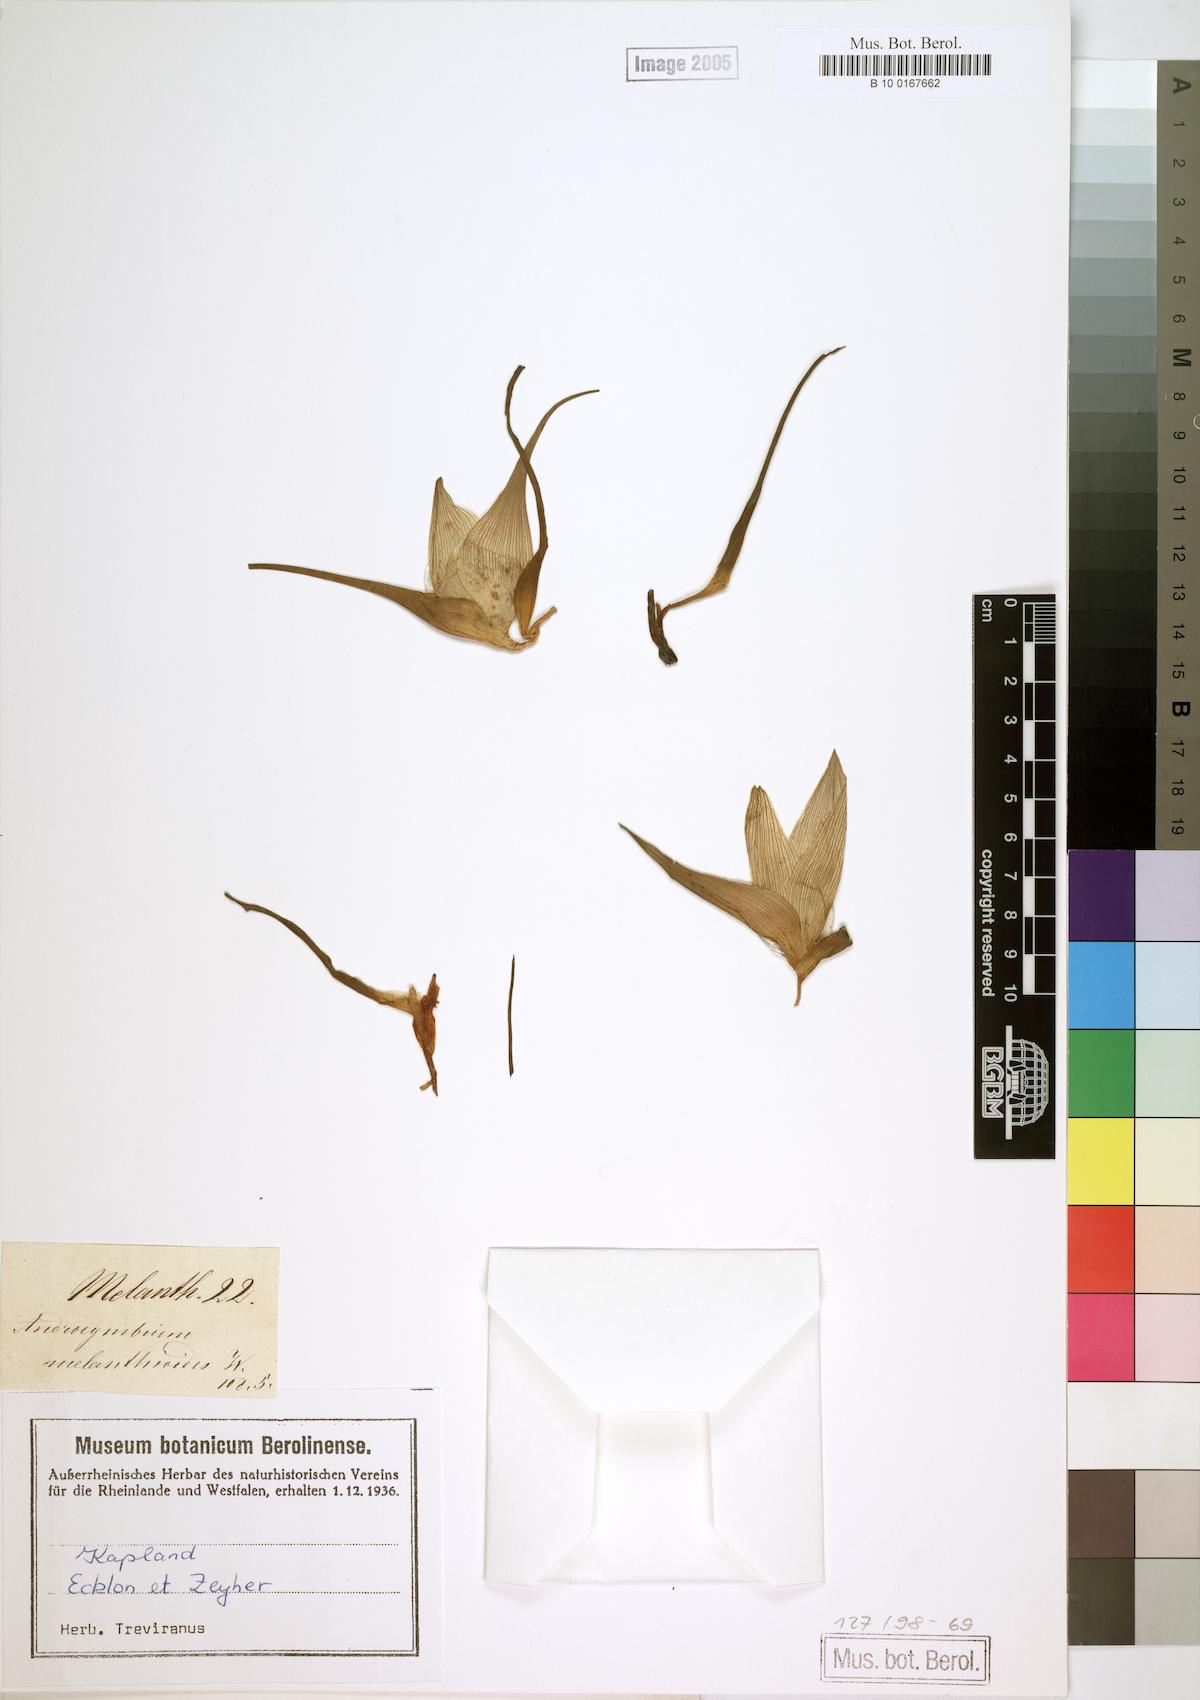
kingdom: Plantae
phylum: Tracheophyta
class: Liliopsida
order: Liliales
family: Colchicaceae
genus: Colchicum
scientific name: Colchicum melanthioides
